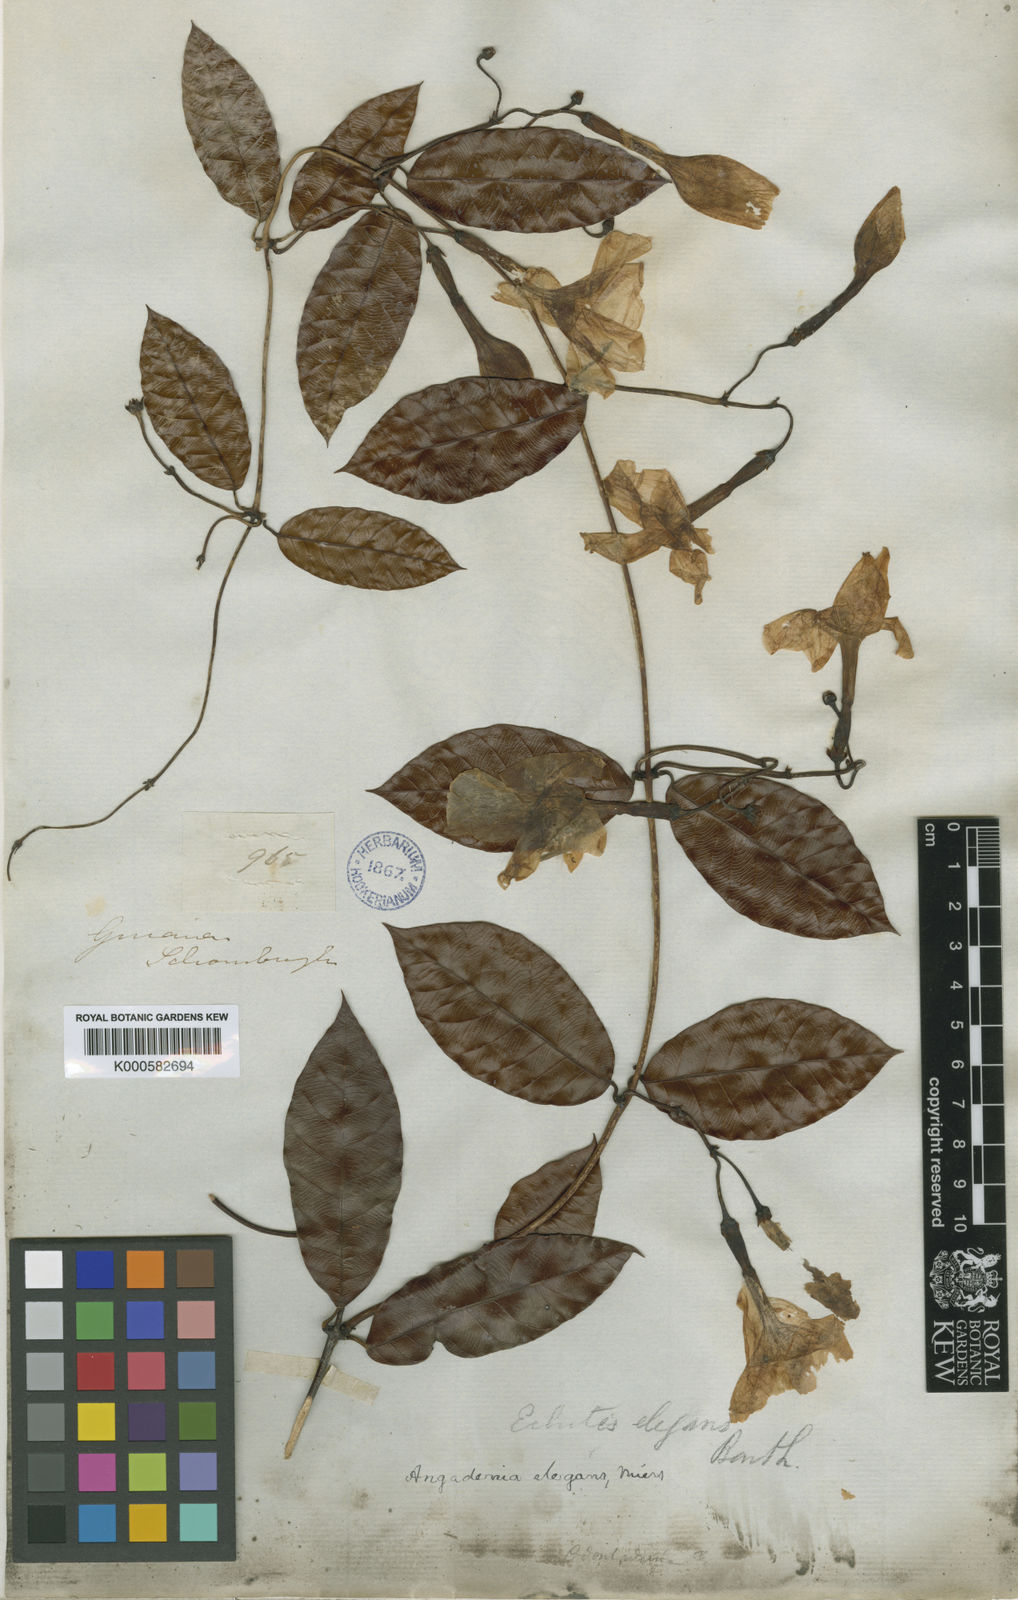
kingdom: Plantae
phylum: Tracheophyta
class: Magnoliopsida
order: Gentianales
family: Apocynaceae
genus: Odontadenia
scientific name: Odontadenia
